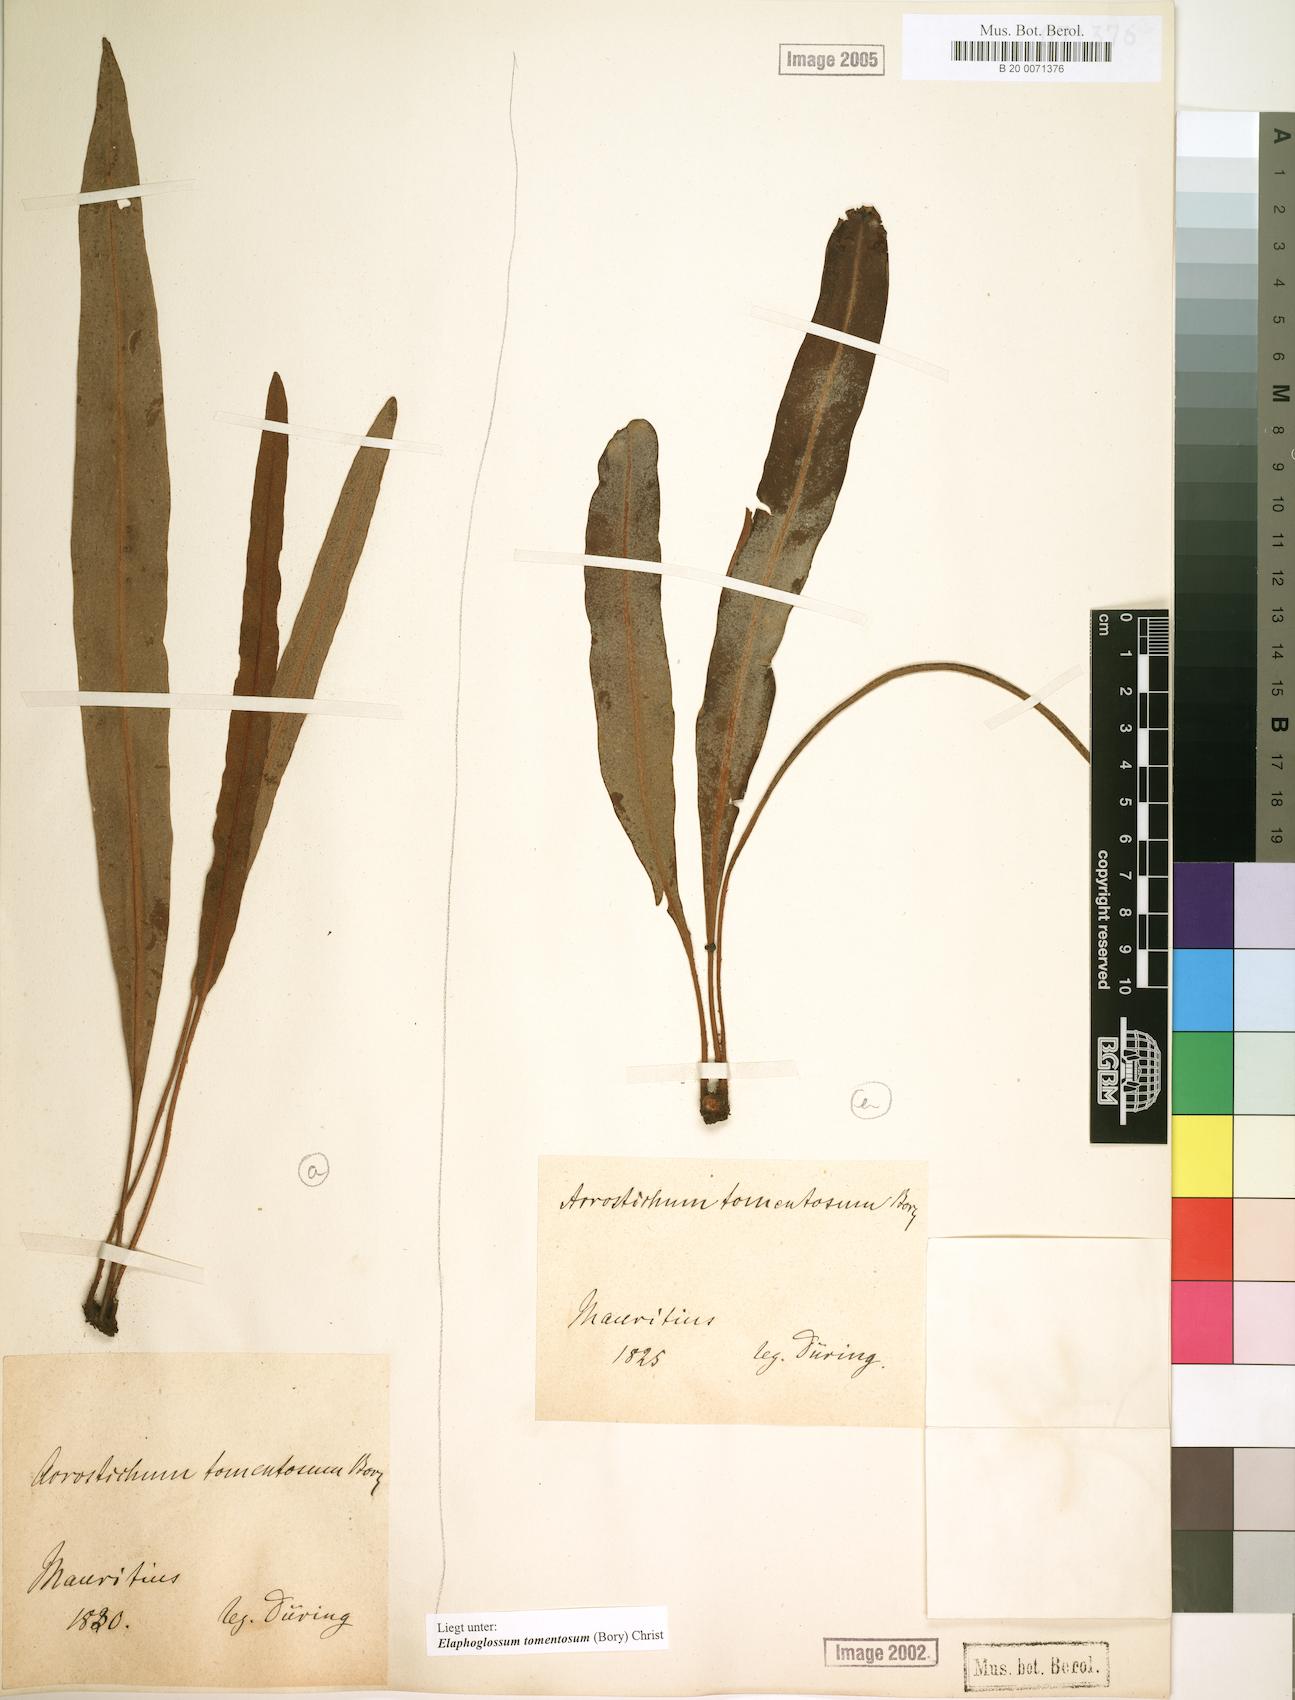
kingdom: Plantae
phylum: Tracheophyta
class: Polypodiopsida
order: Polypodiales
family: Dryopteridaceae
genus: Elaphoglossum
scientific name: Elaphoglossum tomentosum
